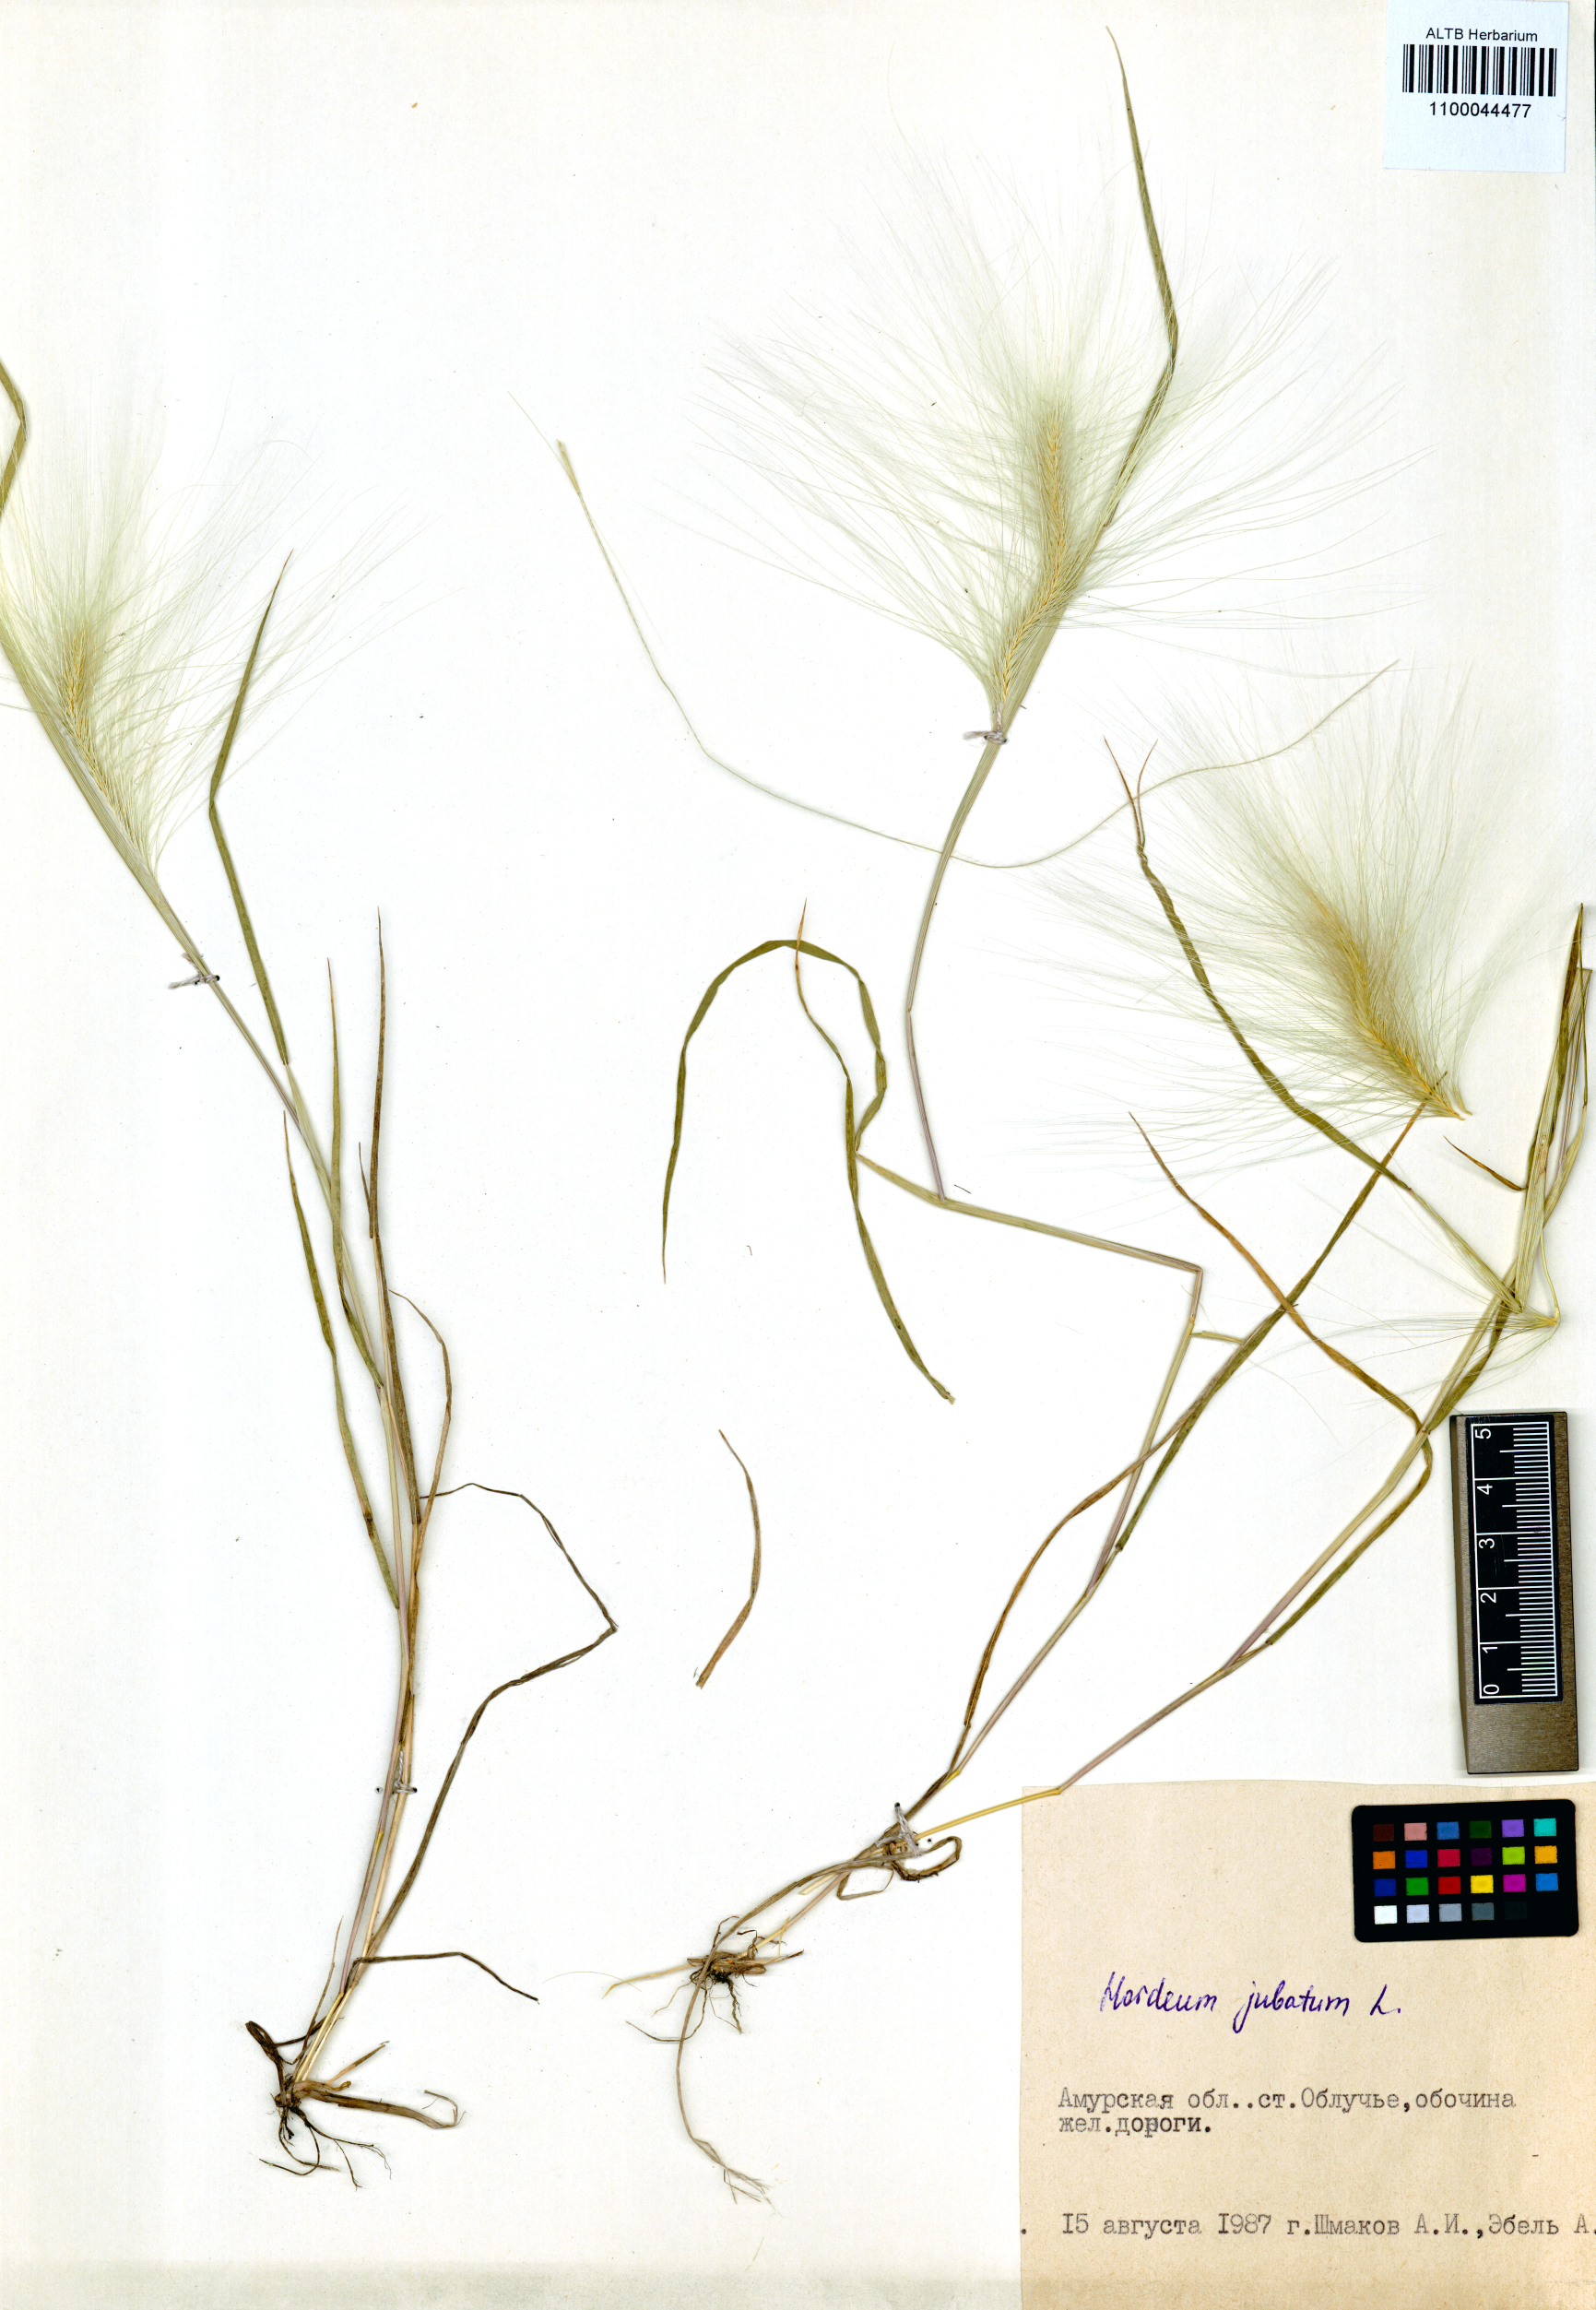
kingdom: Plantae
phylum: Tracheophyta
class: Liliopsida
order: Poales
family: Poaceae
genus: Hordeum
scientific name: Hordeum jubatum
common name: Foxtail barley
